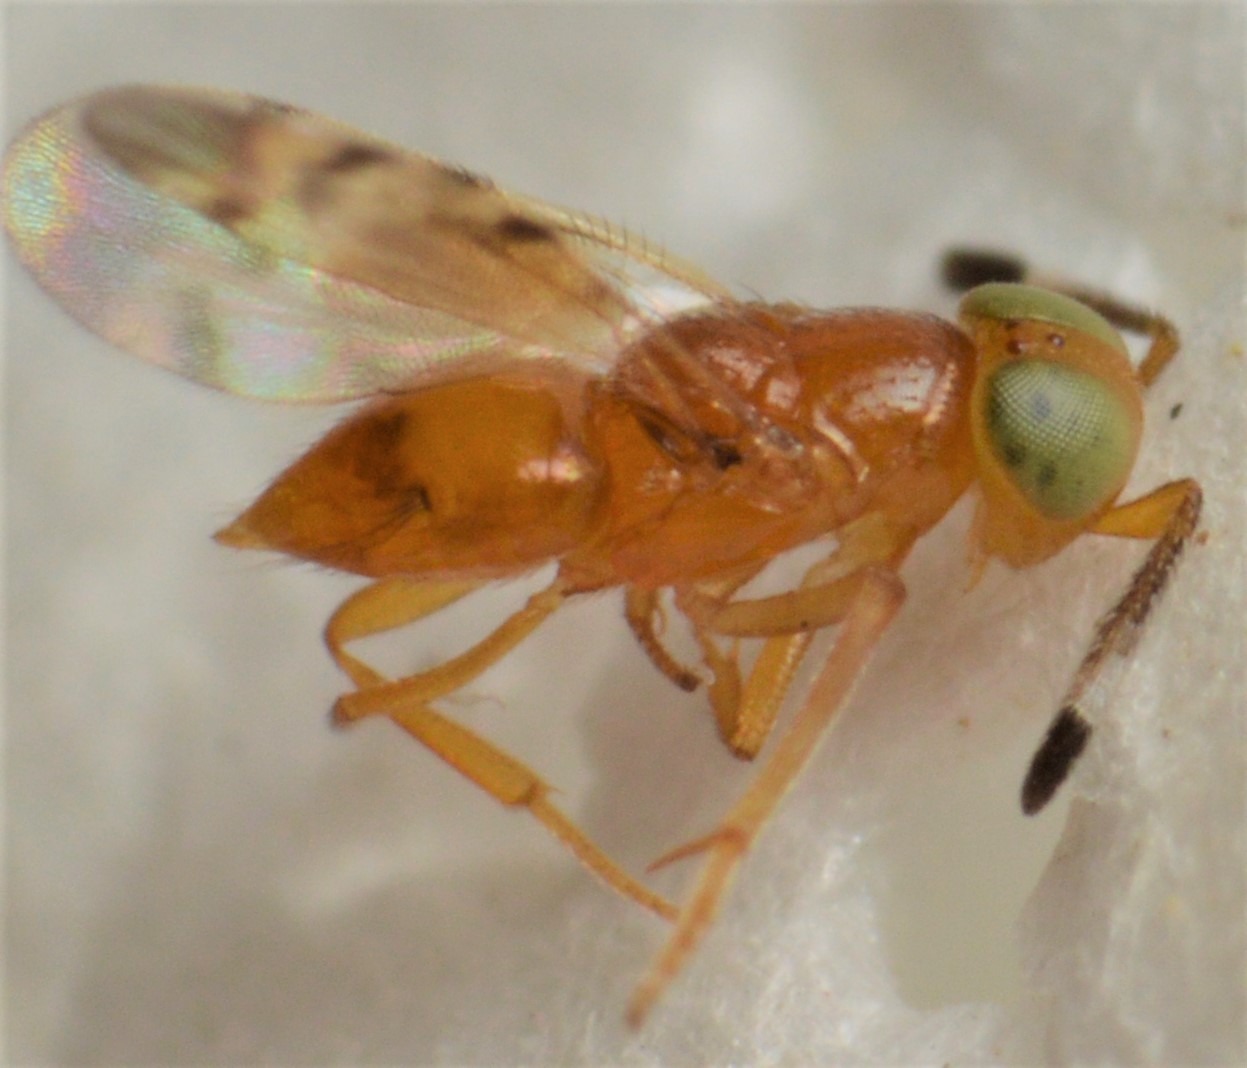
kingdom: Animalia
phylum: Arthropoda
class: Insecta
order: Hymenoptera
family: Encyrtidae
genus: Microterys
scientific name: Microterys seyon
